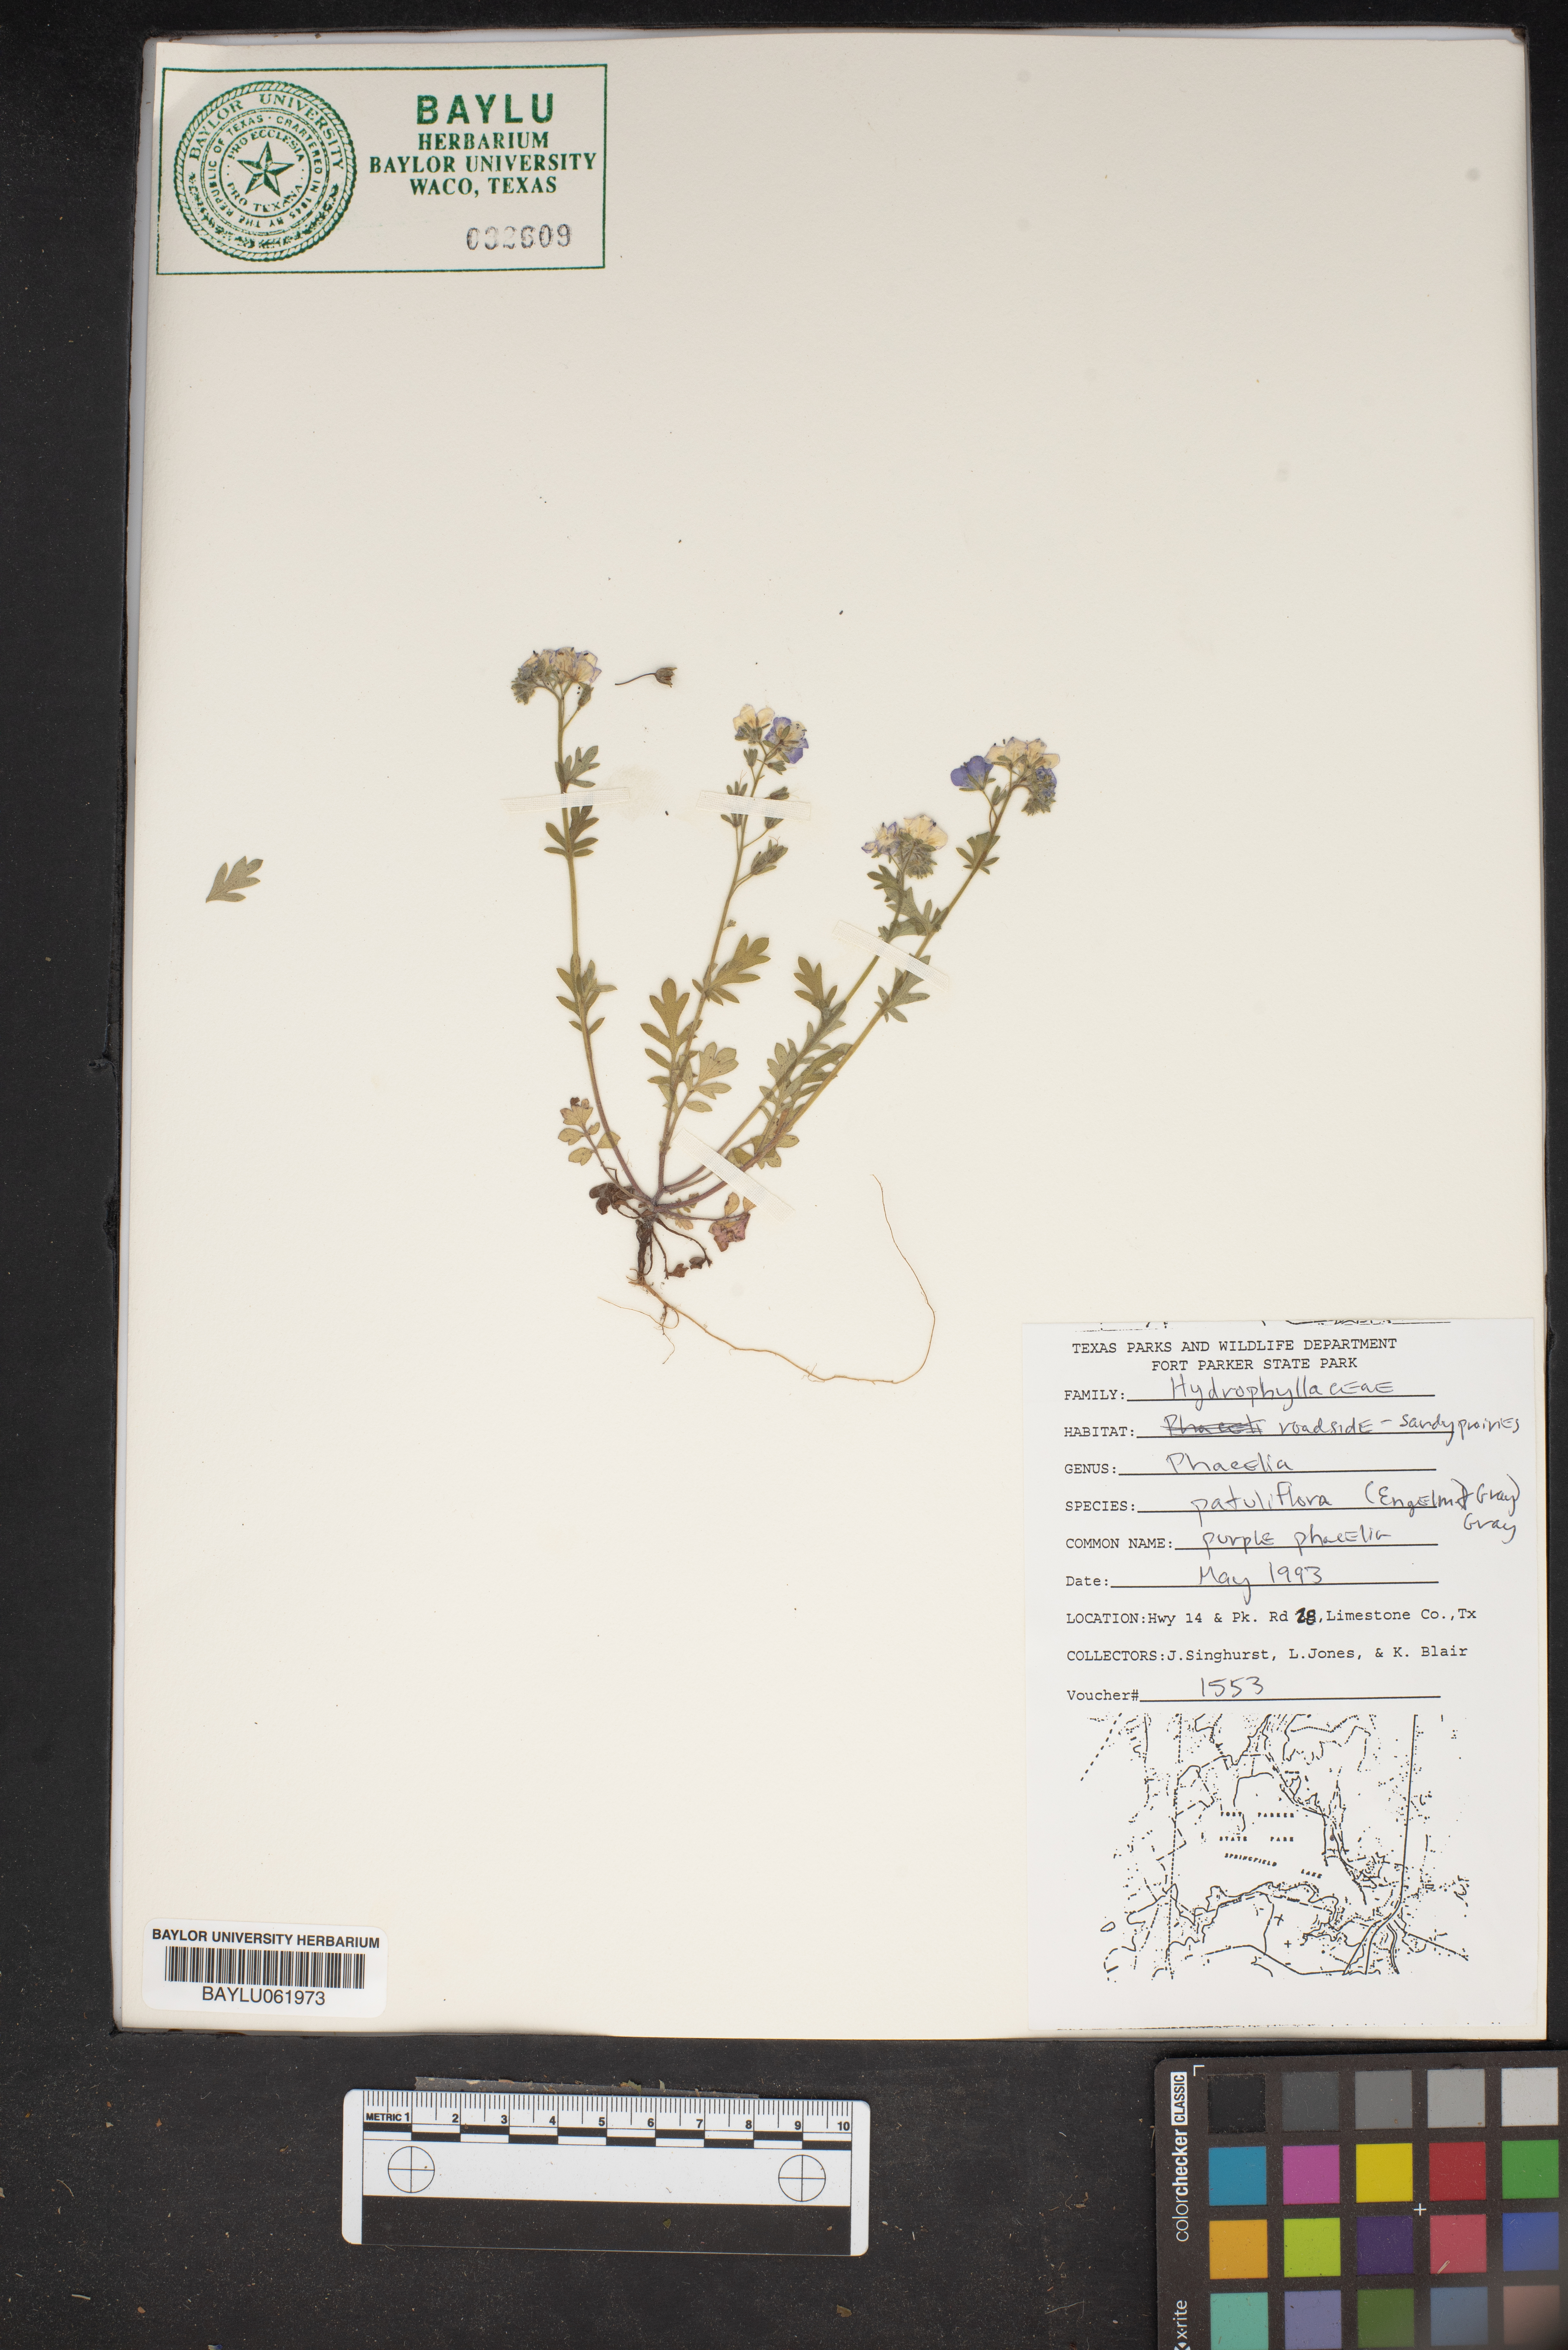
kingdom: Plantae
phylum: Tracheophyta
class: Magnoliopsida
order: Boraginales
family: Hydrophyllaceae
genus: Phacelia
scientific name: Phacelia patuliflora
